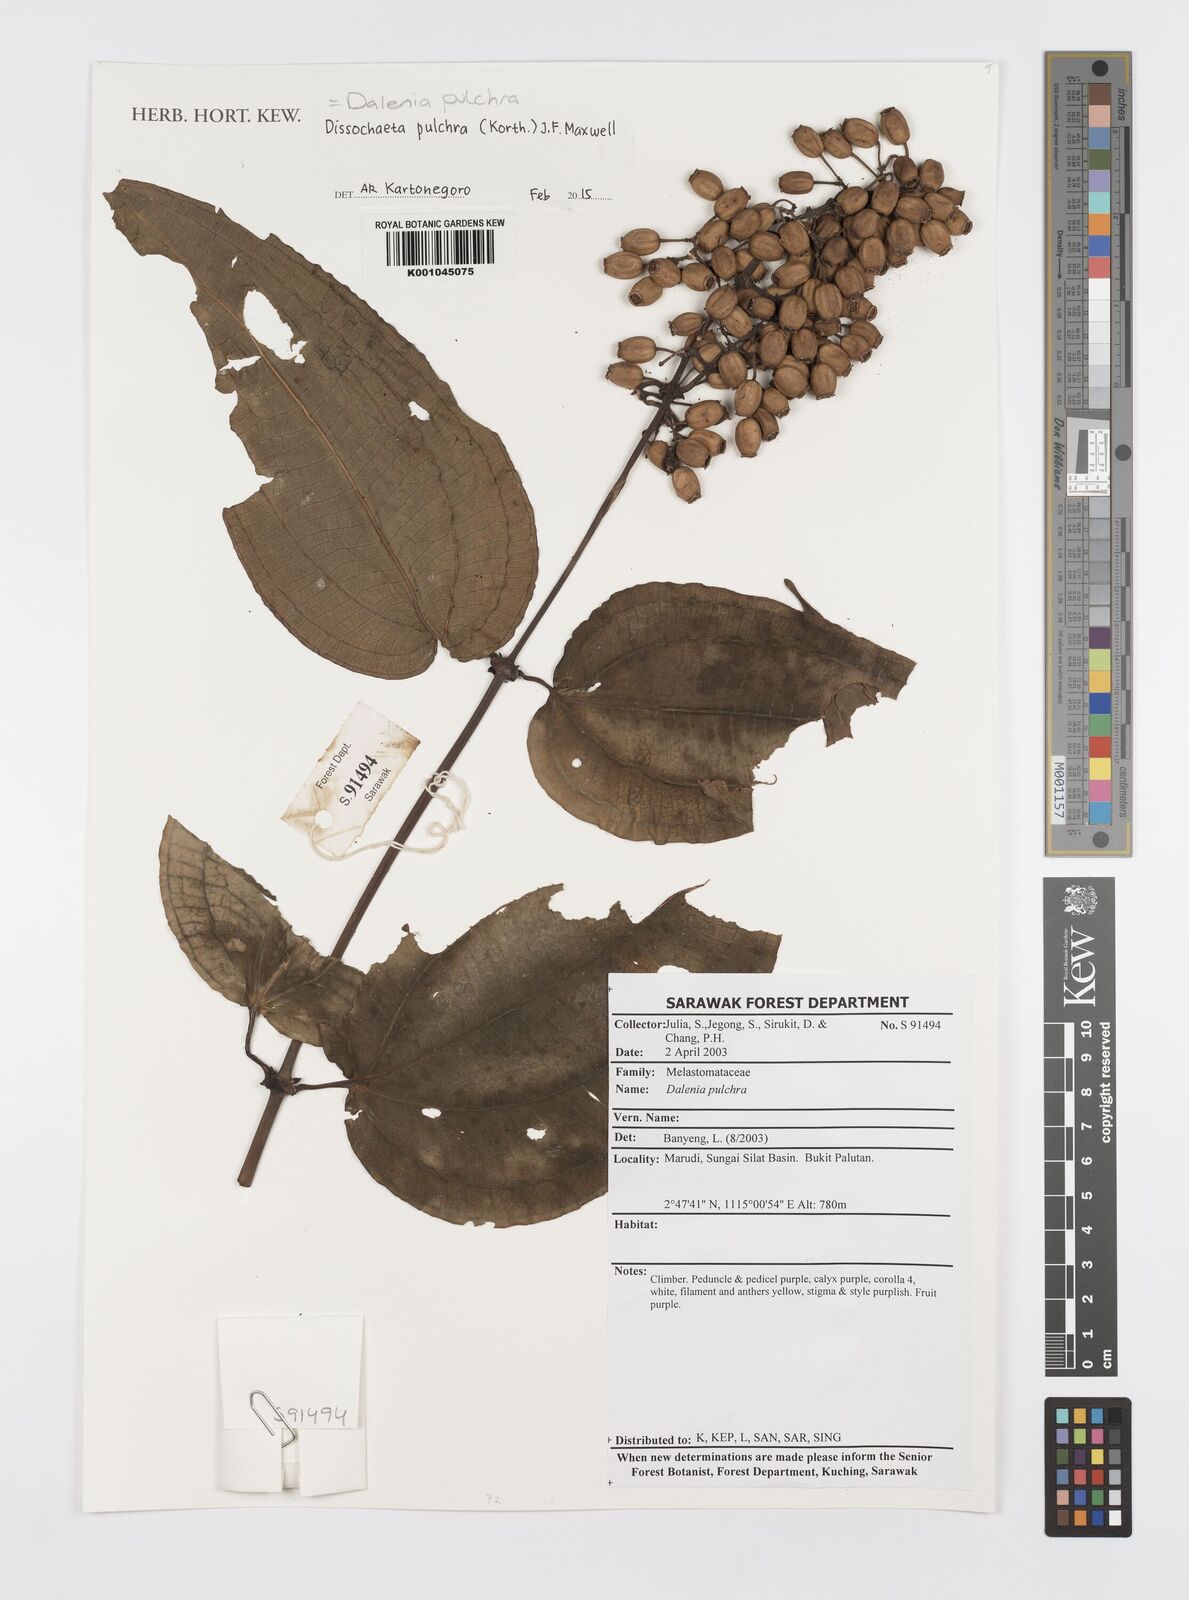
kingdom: Plantae
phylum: Tracheophyta
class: Magnoliopsida
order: Myrtales
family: Melastomataceae
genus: Dalenia
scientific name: Dalenia pulchra
